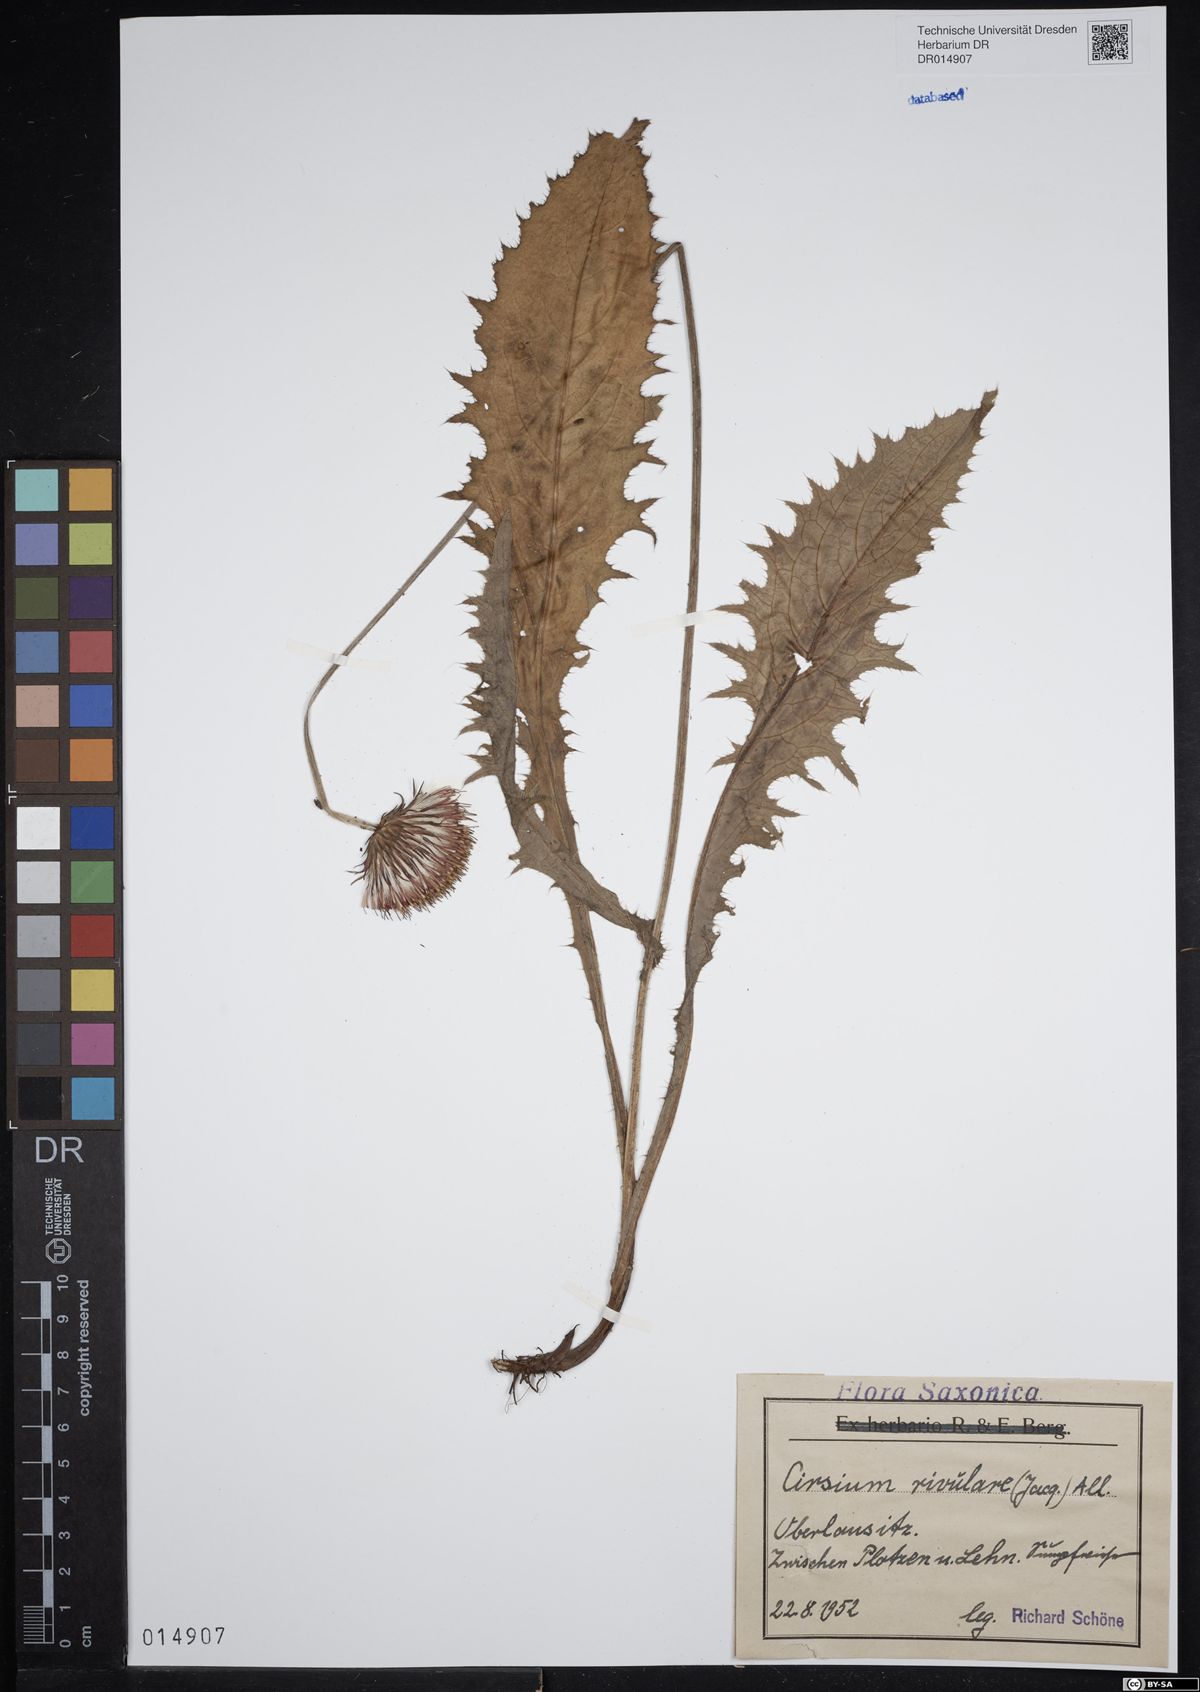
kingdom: Plantae
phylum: Tracheophyta
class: Magnoliopsida
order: Asterales
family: Asteraceae
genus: Cirsium
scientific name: Cirsium rivulare
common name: Brook thistle
